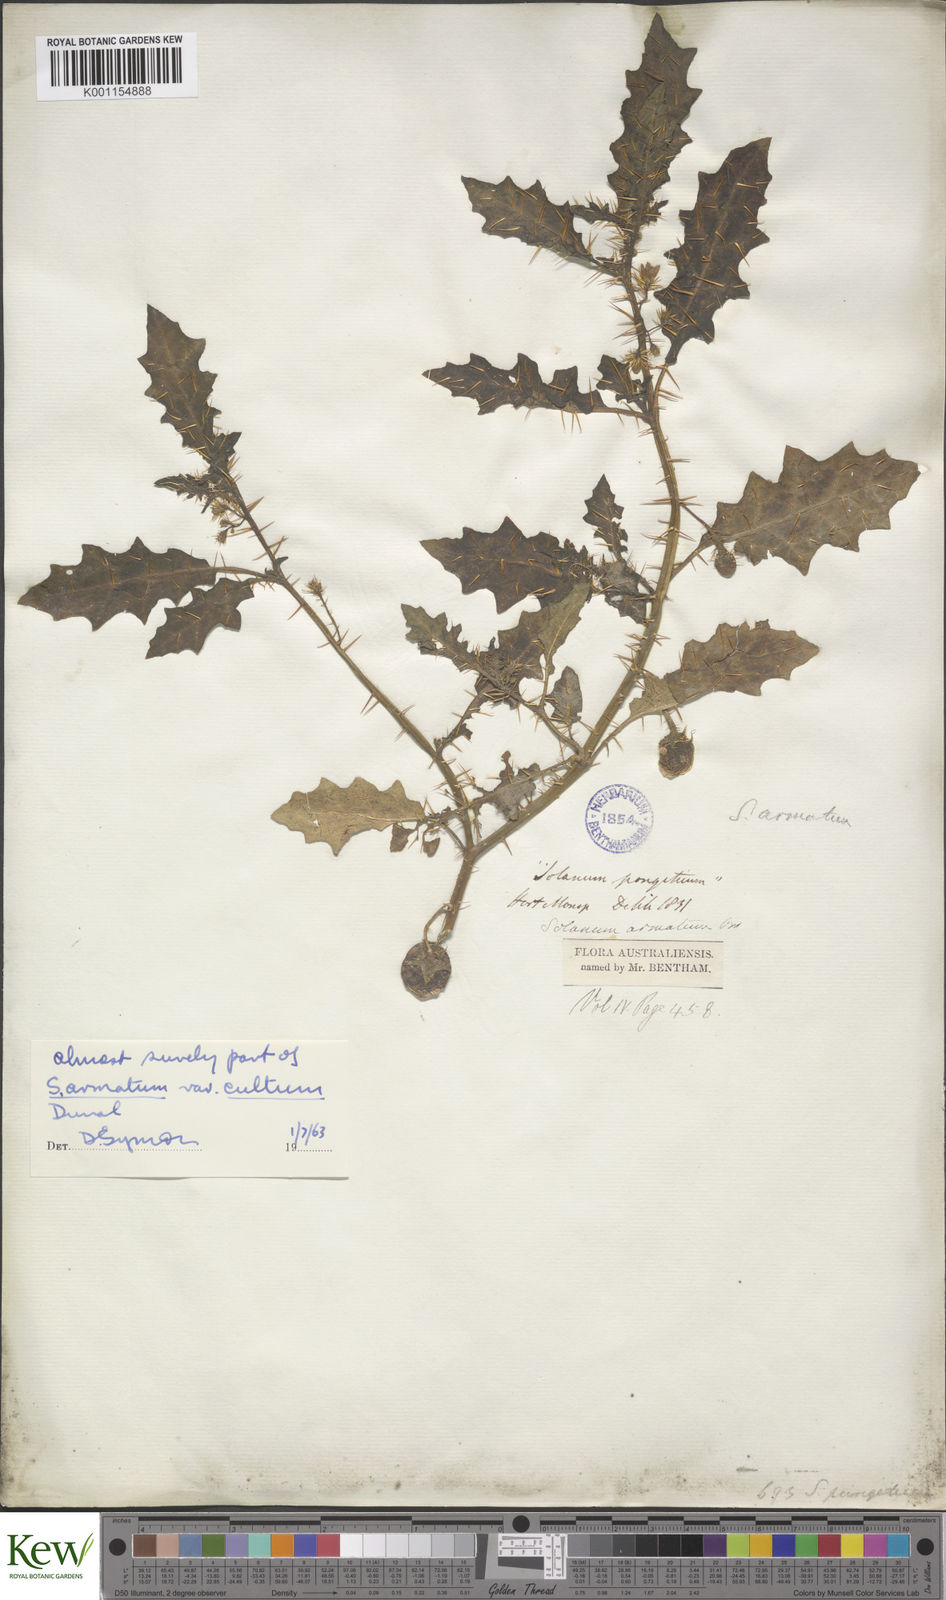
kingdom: Plantae
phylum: Tracheophyta
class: Magnoliopsida
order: Solanales
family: Solanaceae
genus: Solanum
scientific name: Solanum prinophyllum
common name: Forest nightshade
